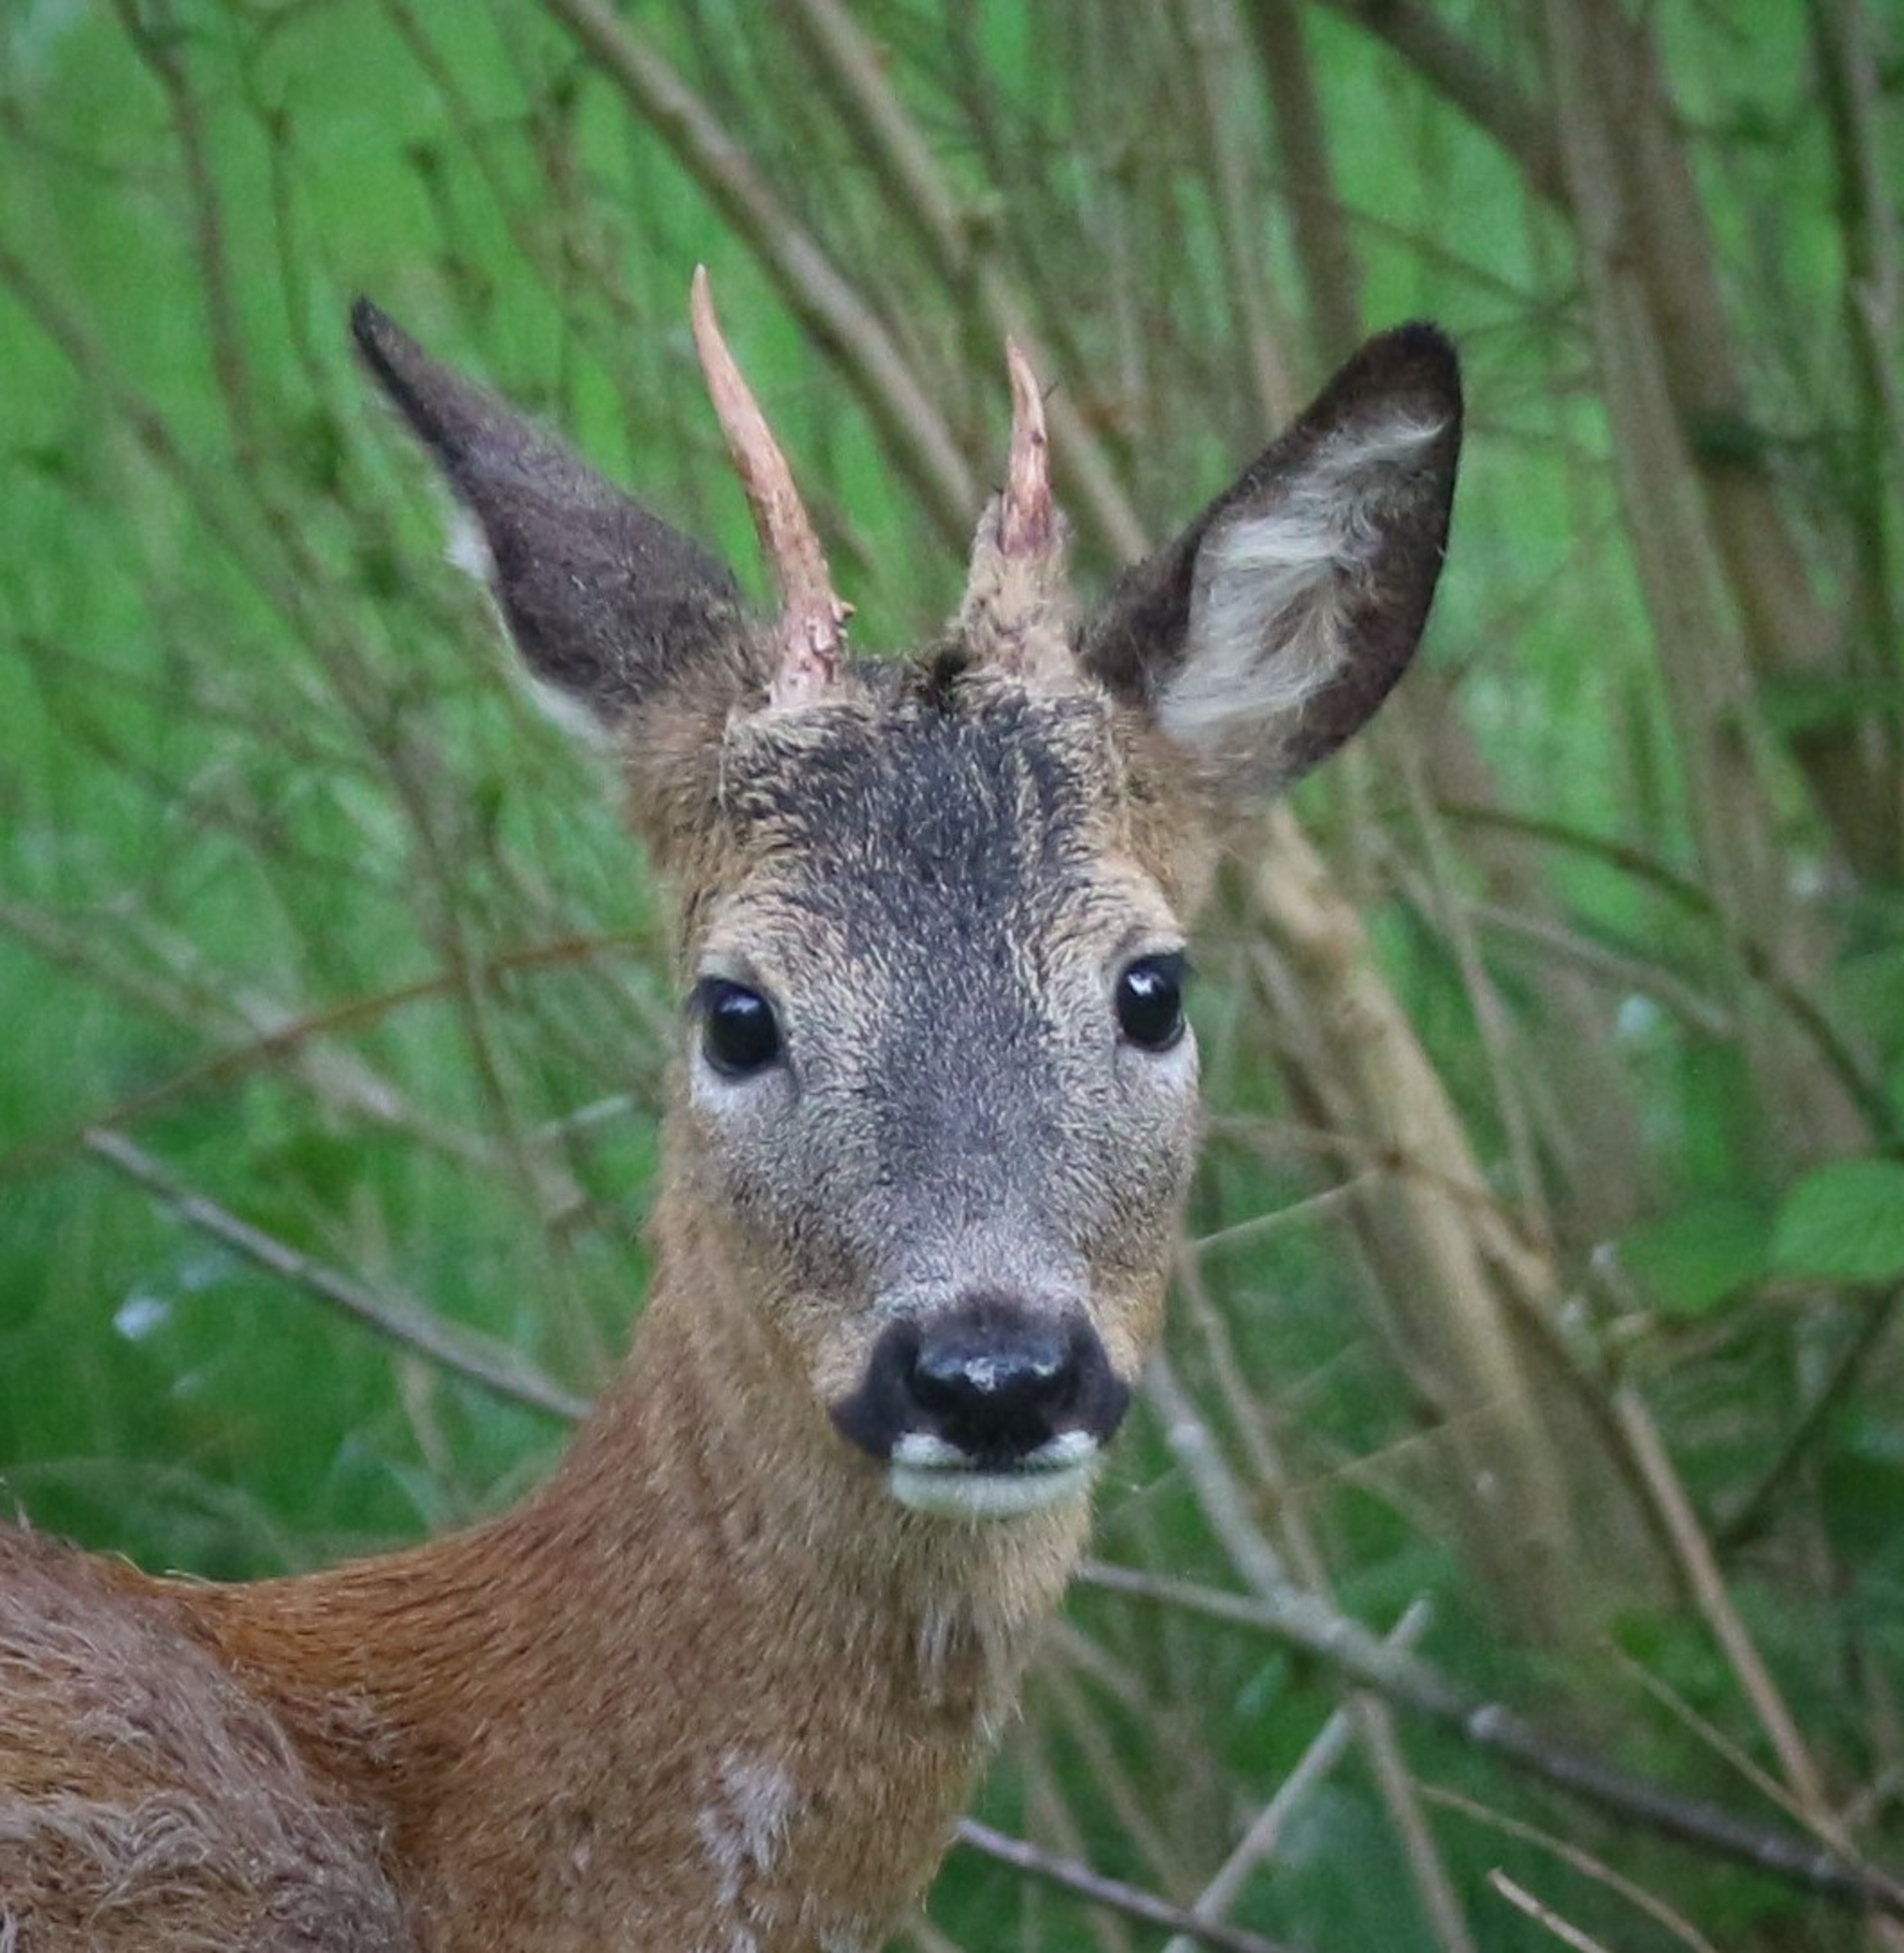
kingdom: Animalia
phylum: Chordata
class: Mammalia
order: Artiodactyla
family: Cervidae
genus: Capreolus
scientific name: Capreolus capreolus
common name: Rådyr
